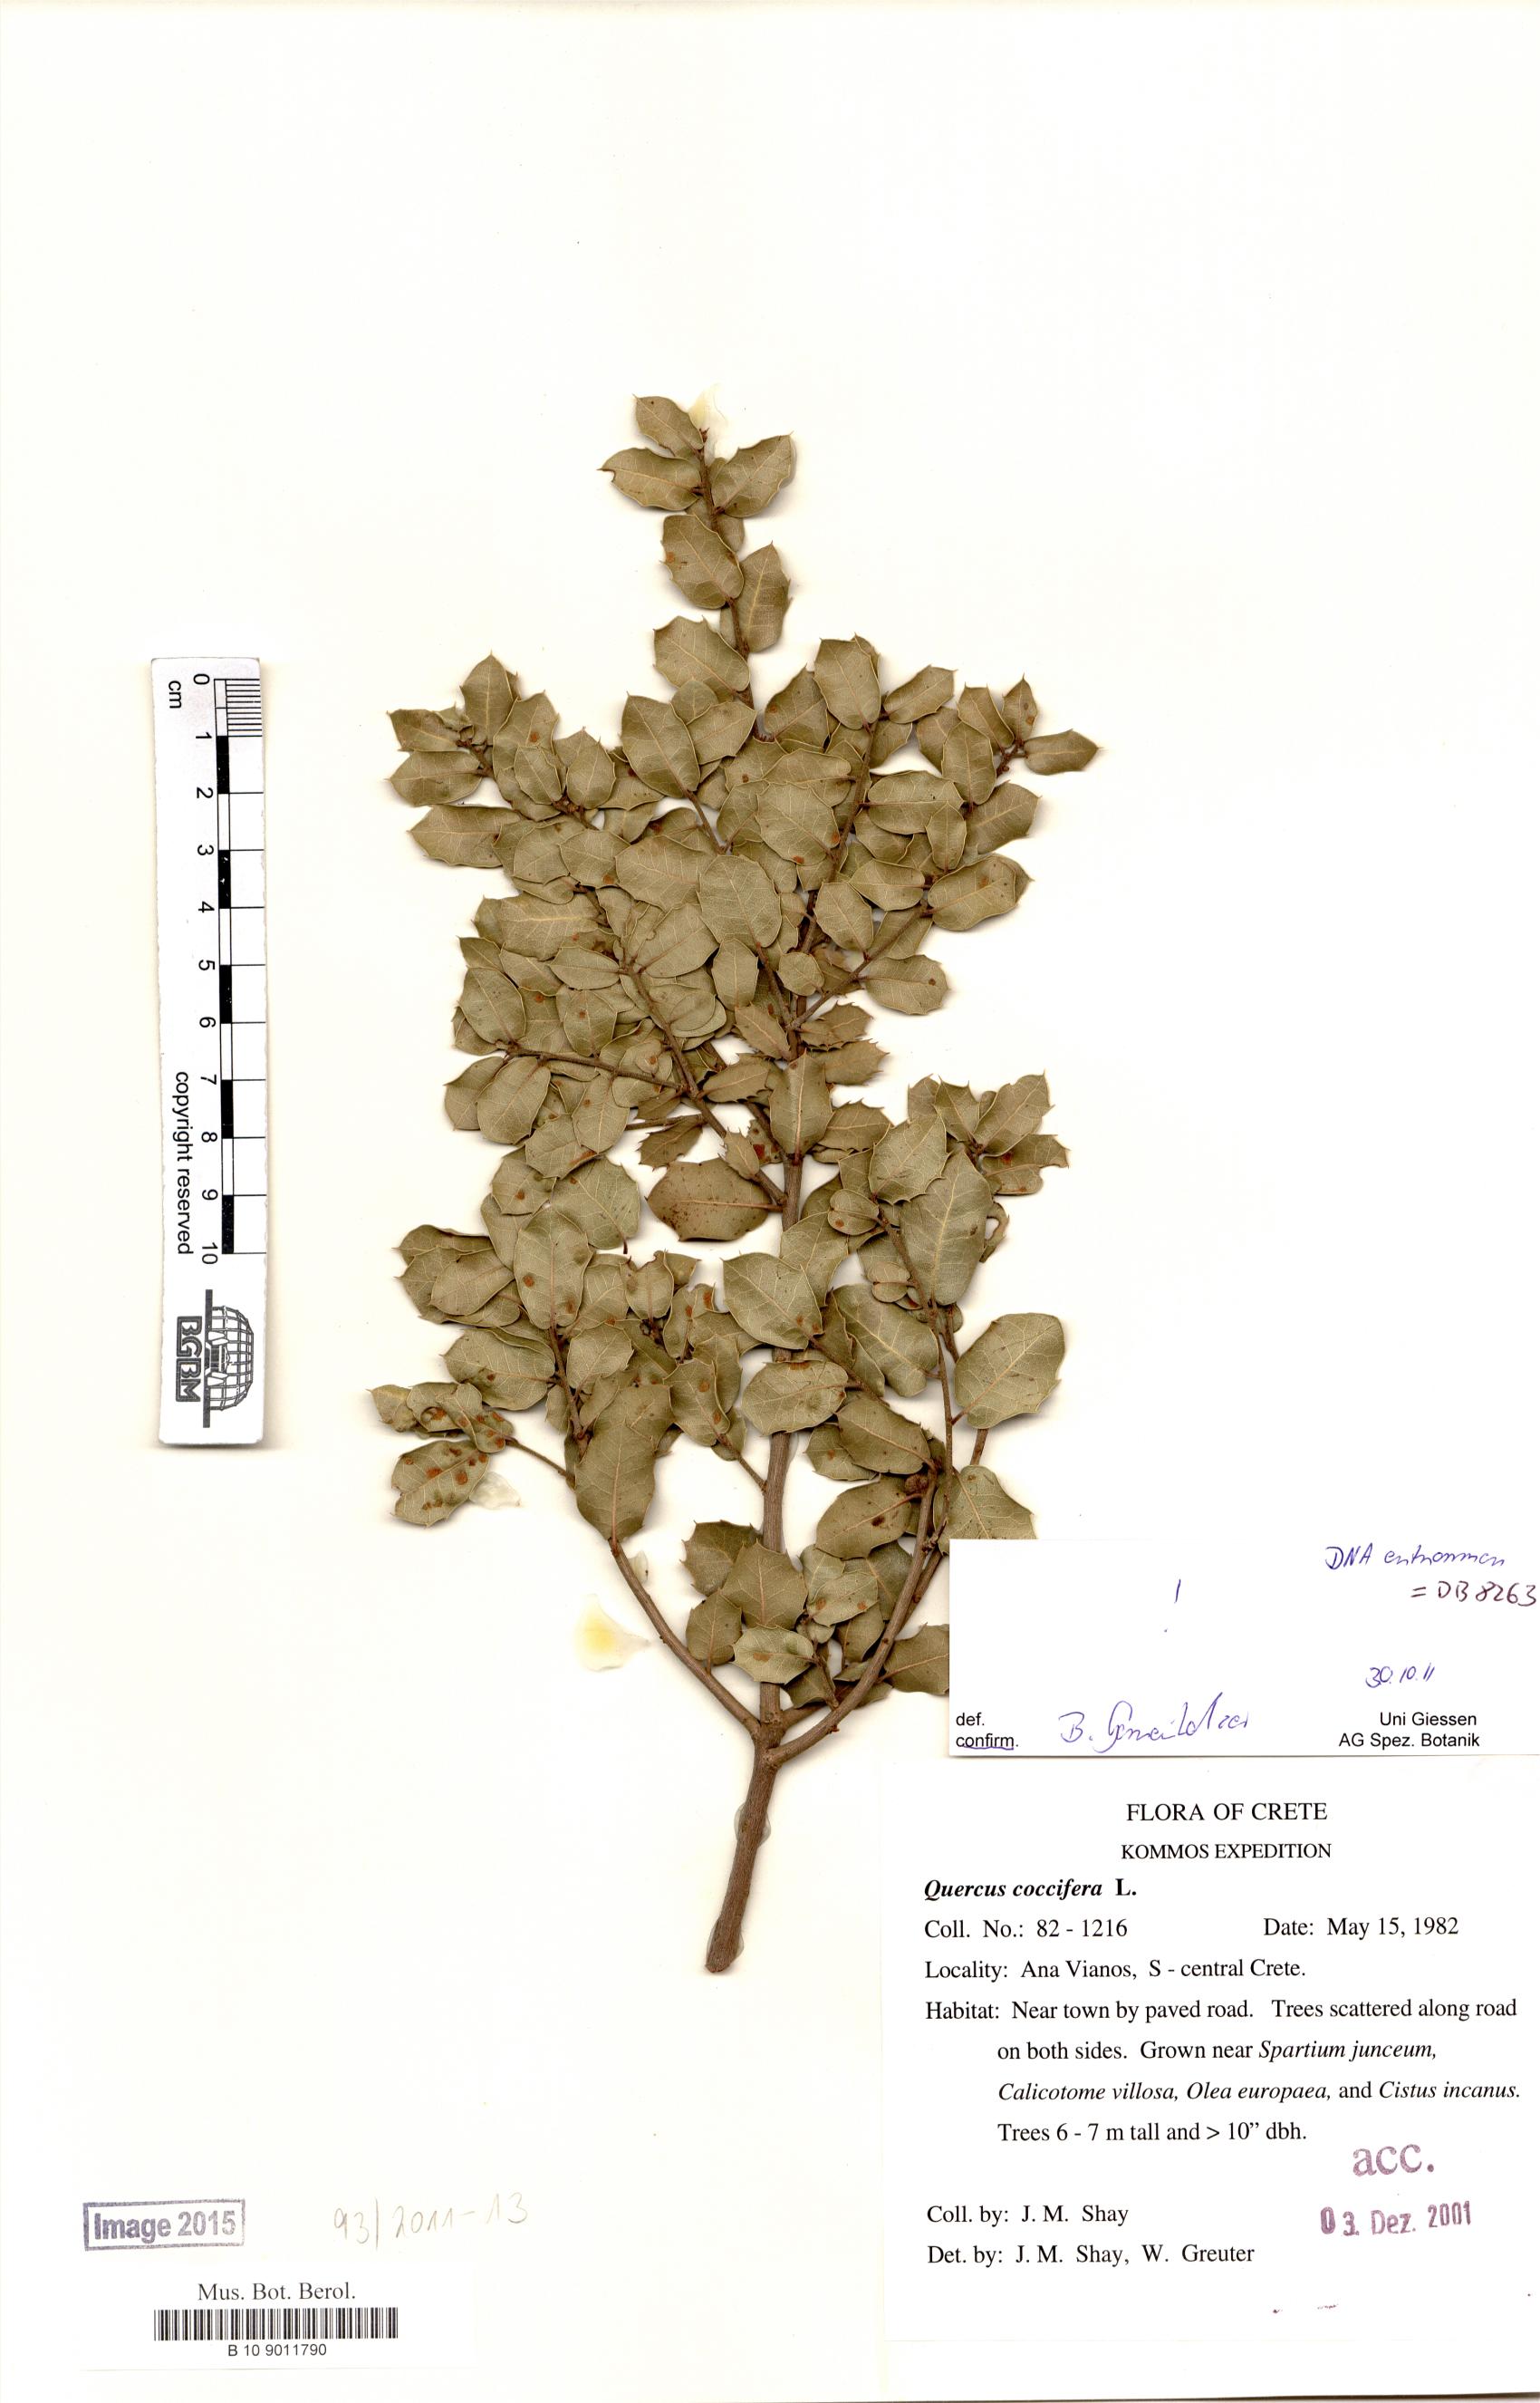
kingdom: Plantae
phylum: Tracheophyta
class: Magnoliopsida
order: Fagales
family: Fagaceae
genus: Quercus
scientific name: Quercus coccifera
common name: Kermes oak
